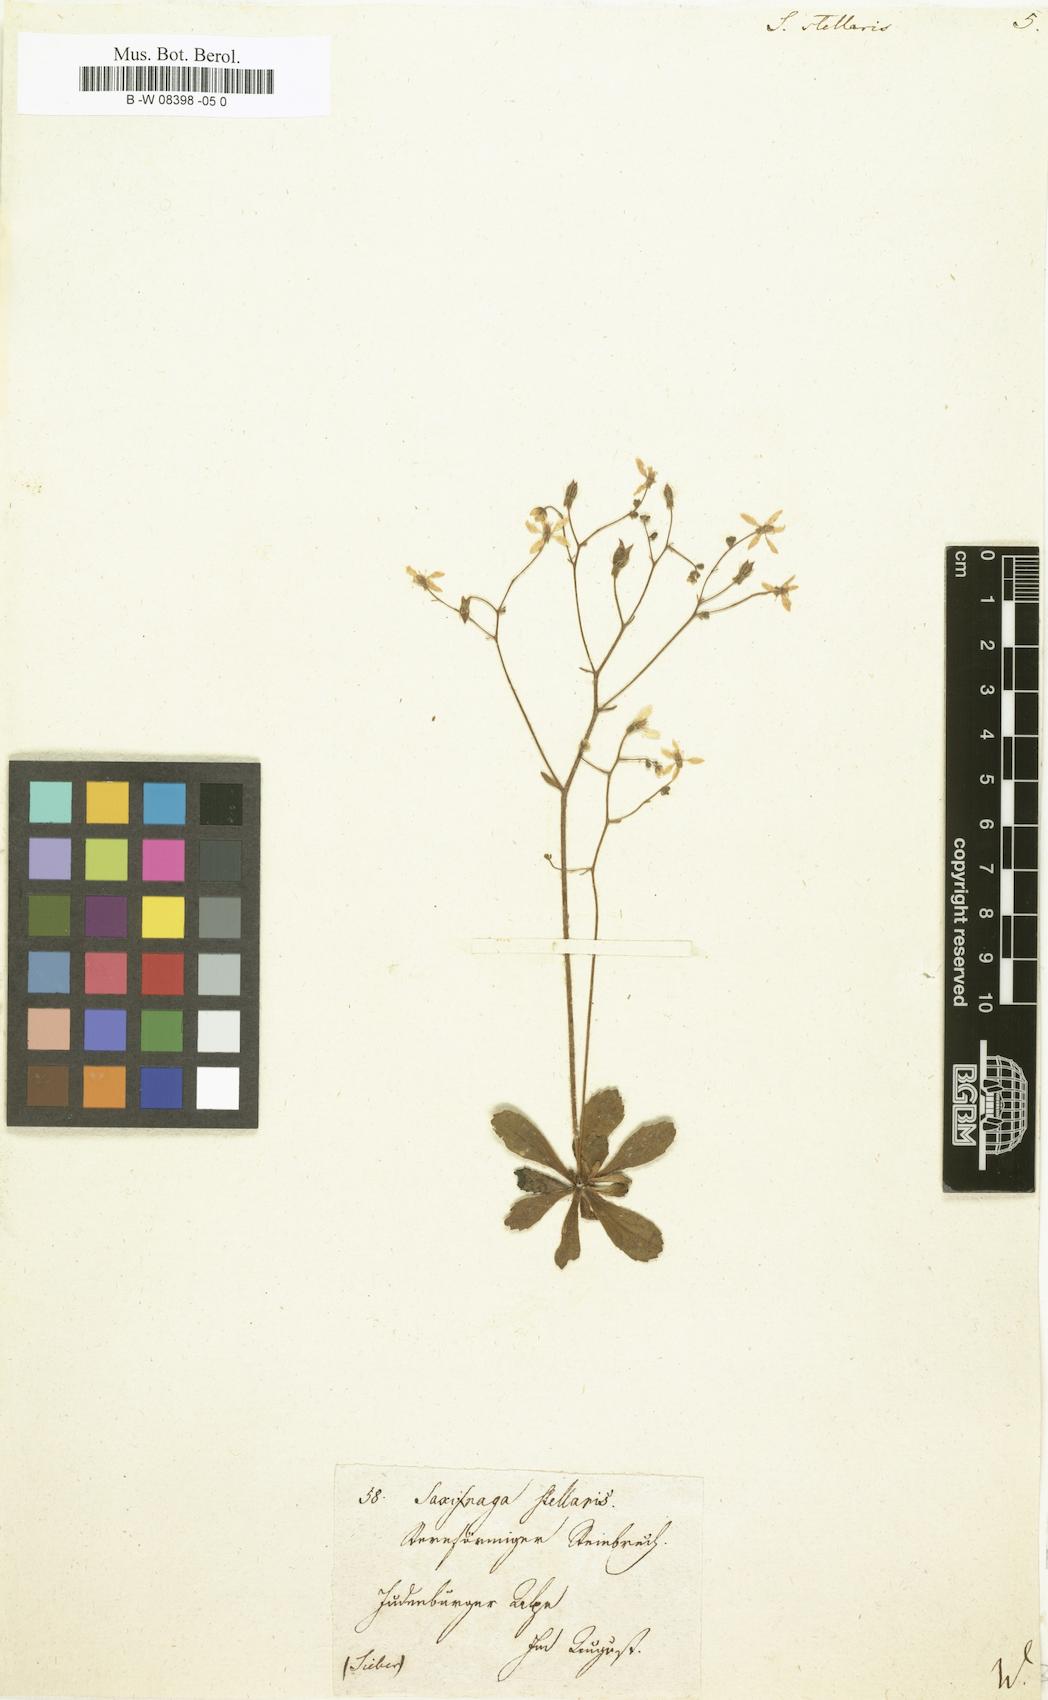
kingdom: Plantae
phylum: Tracheophyta
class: Magnoliopsida
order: Saxifragales
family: Saxifragaceae
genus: Micranthes
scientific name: Micranthes stellaris
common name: Starry saxifrage
